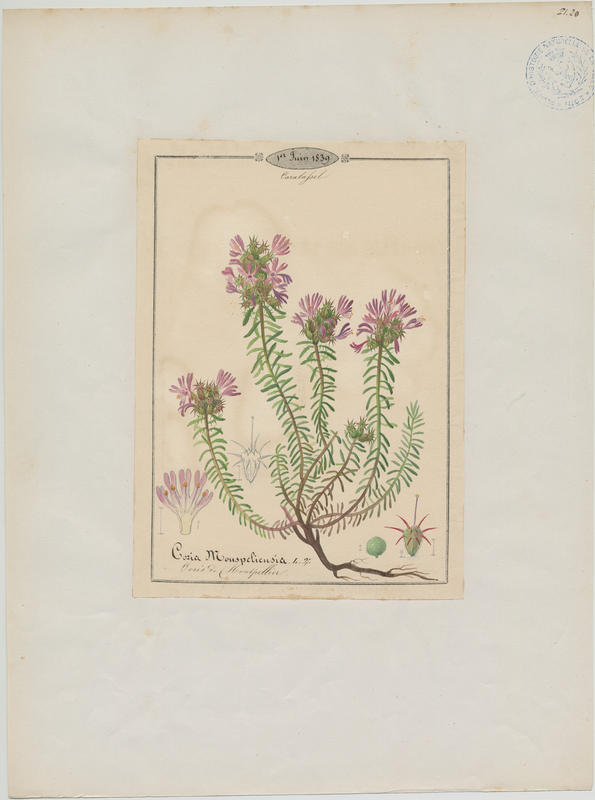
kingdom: Plantae
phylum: Tracheophyta
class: Magnoliopsida
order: Ericales
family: Primulaceae
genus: Coris
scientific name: Coris monspeliensis
